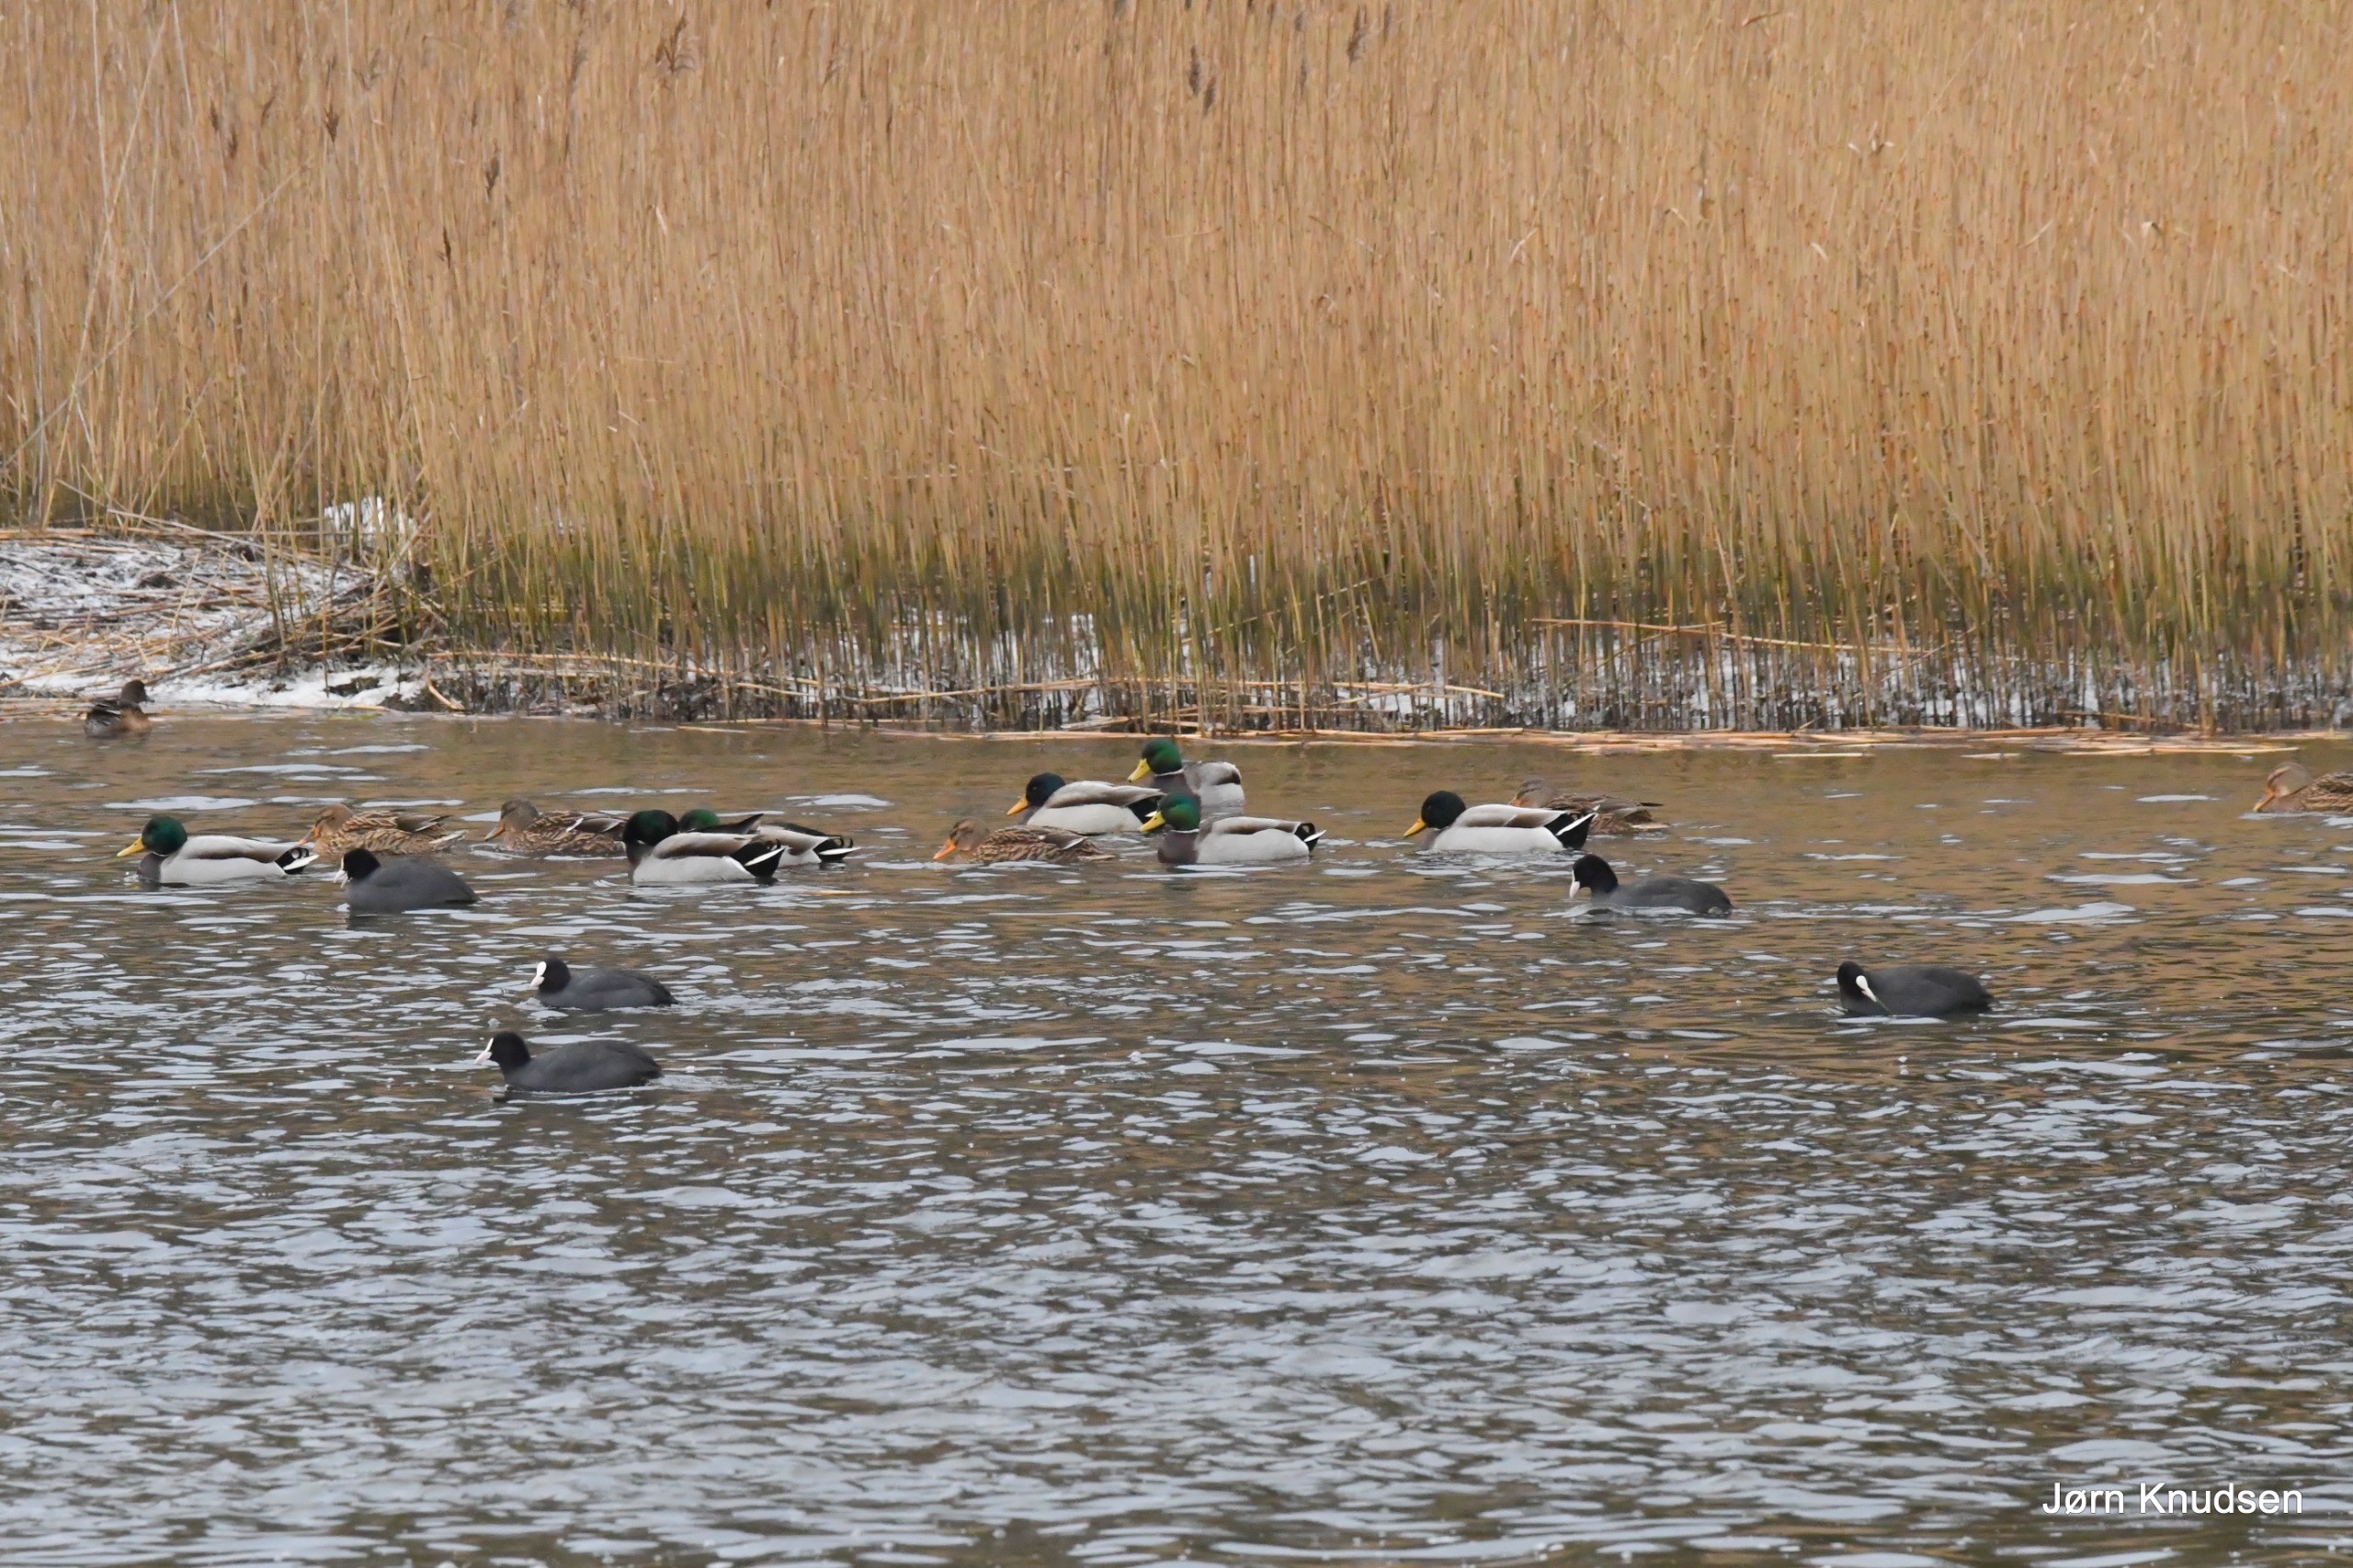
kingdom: Animalia
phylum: Chordata
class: Aves
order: Anseriformes
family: Anatidae
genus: Anas
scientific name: Anas platyrhynchos
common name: Gråand
